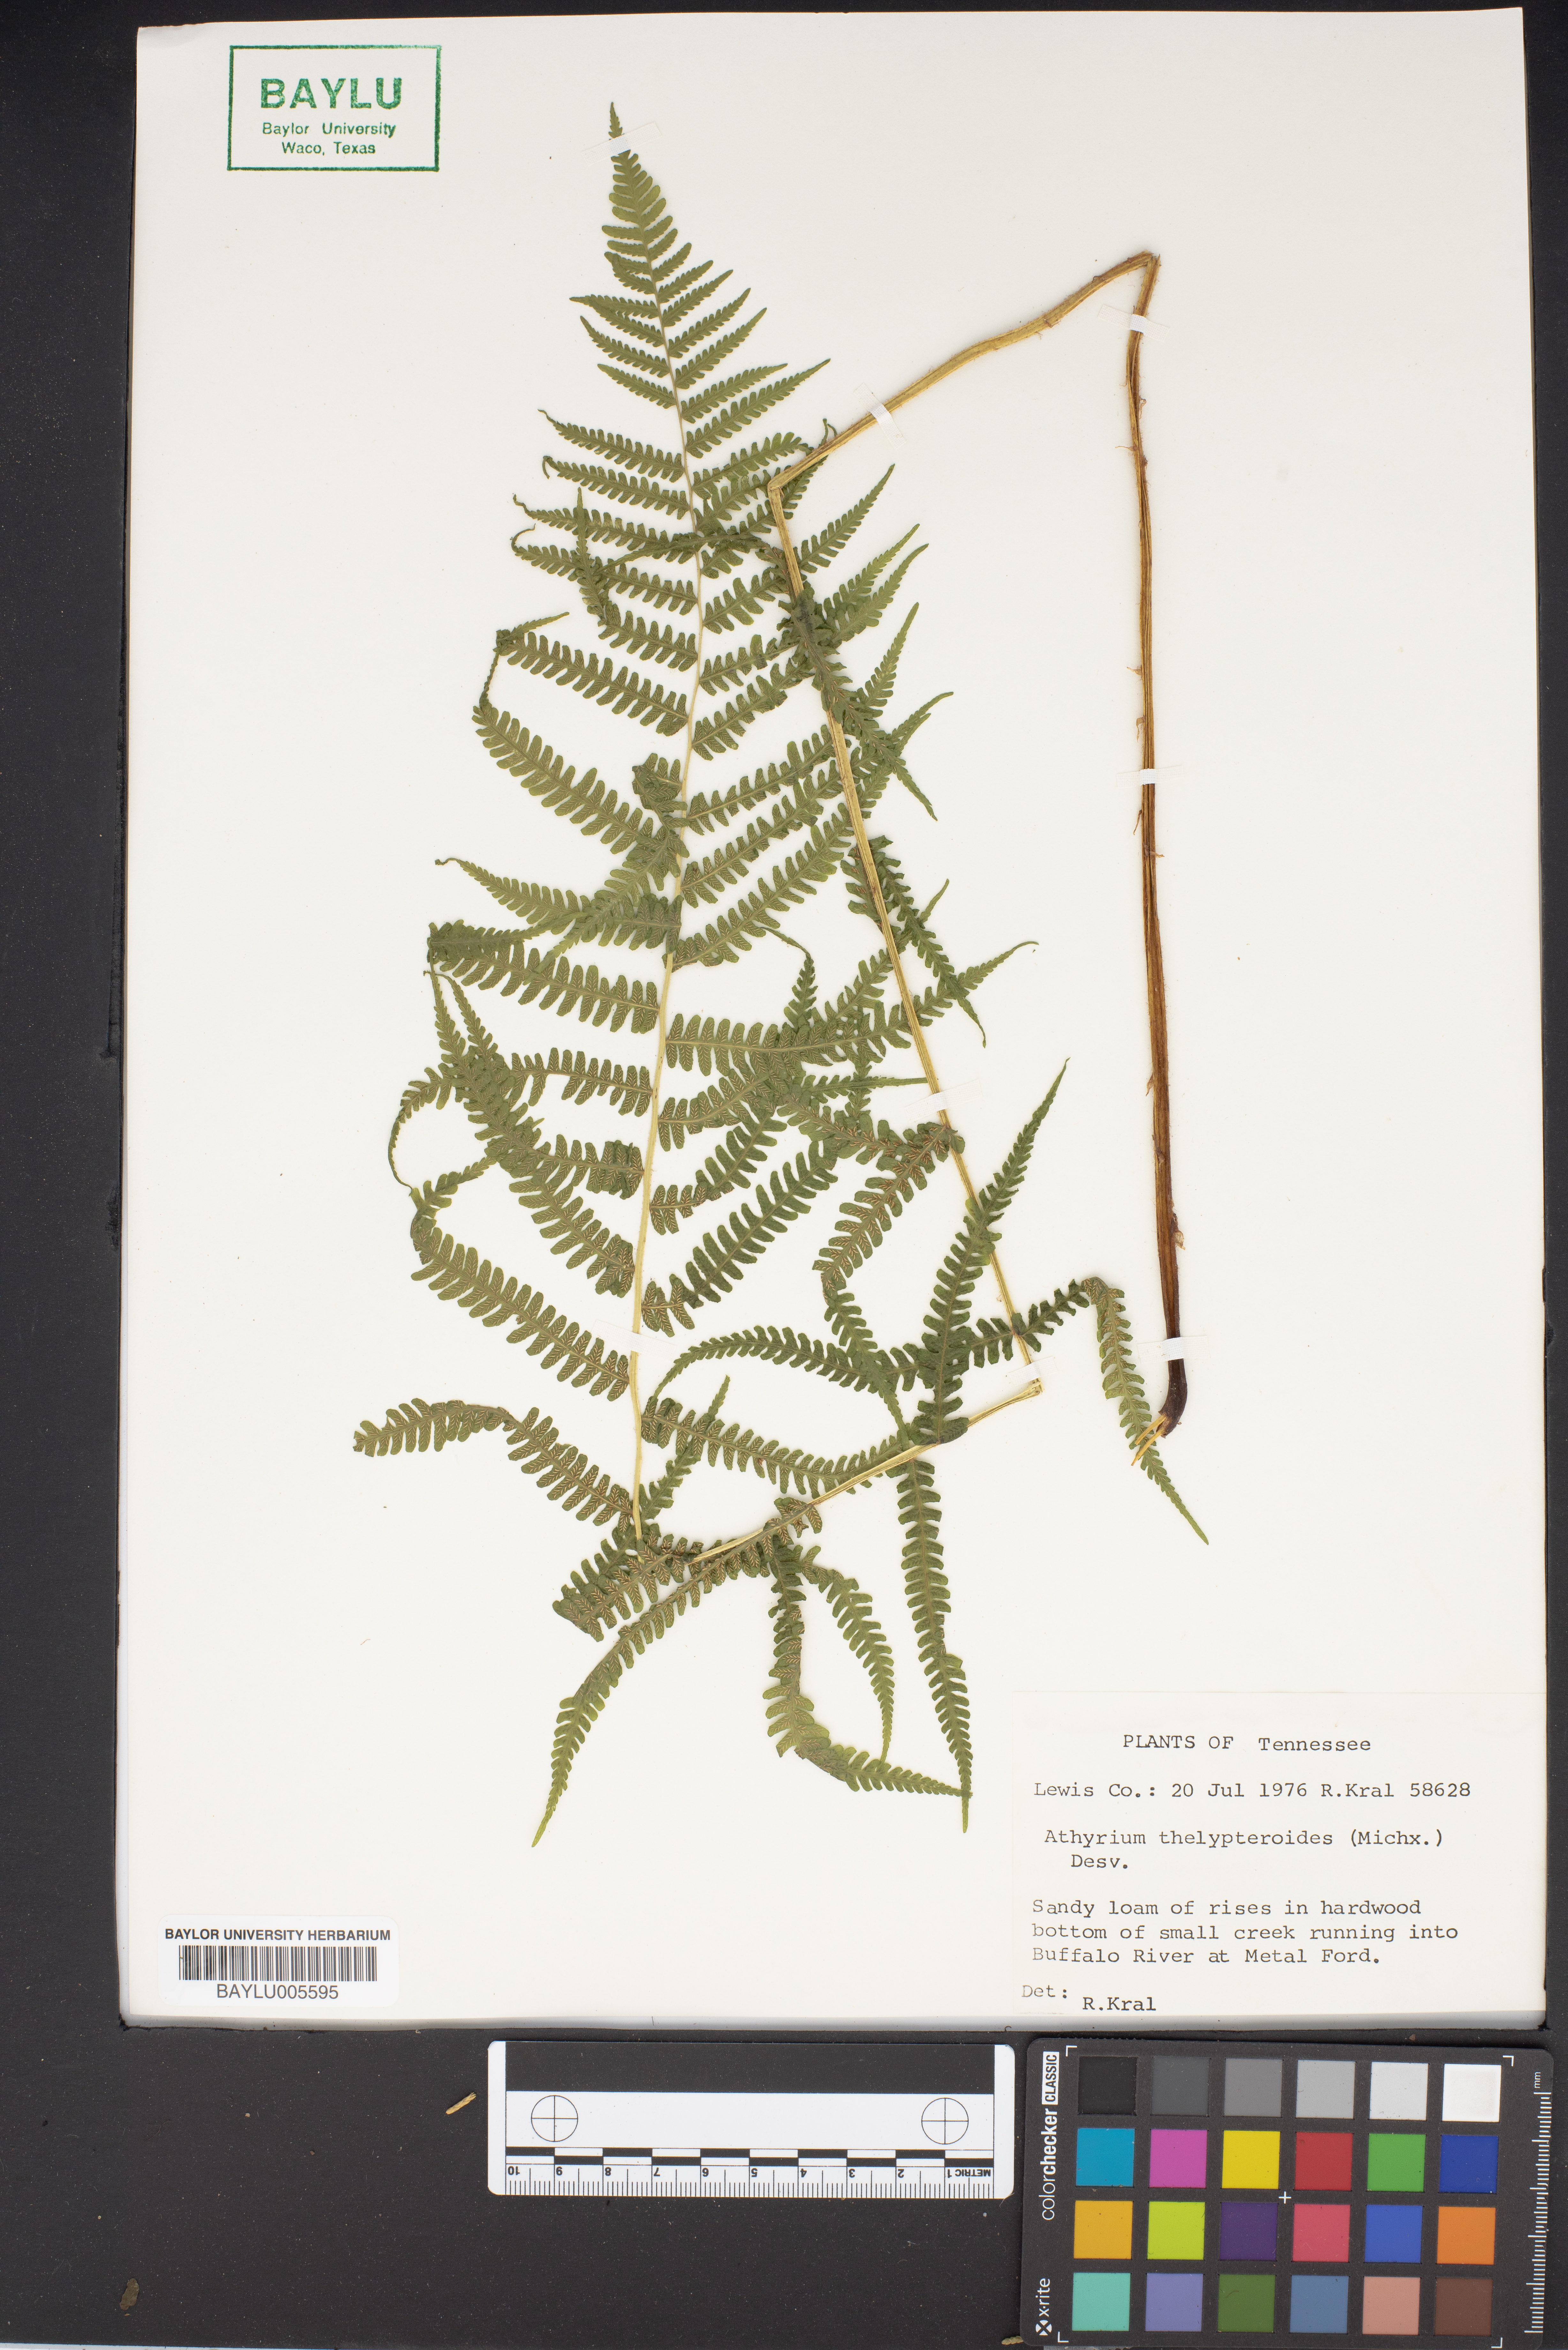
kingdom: Plantae
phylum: Tracheophyta
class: Polypodiopsida
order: Polypodiales
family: Athyriaceae
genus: Deparia
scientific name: Deparia acrostichoides
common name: Silver false spleenwort
